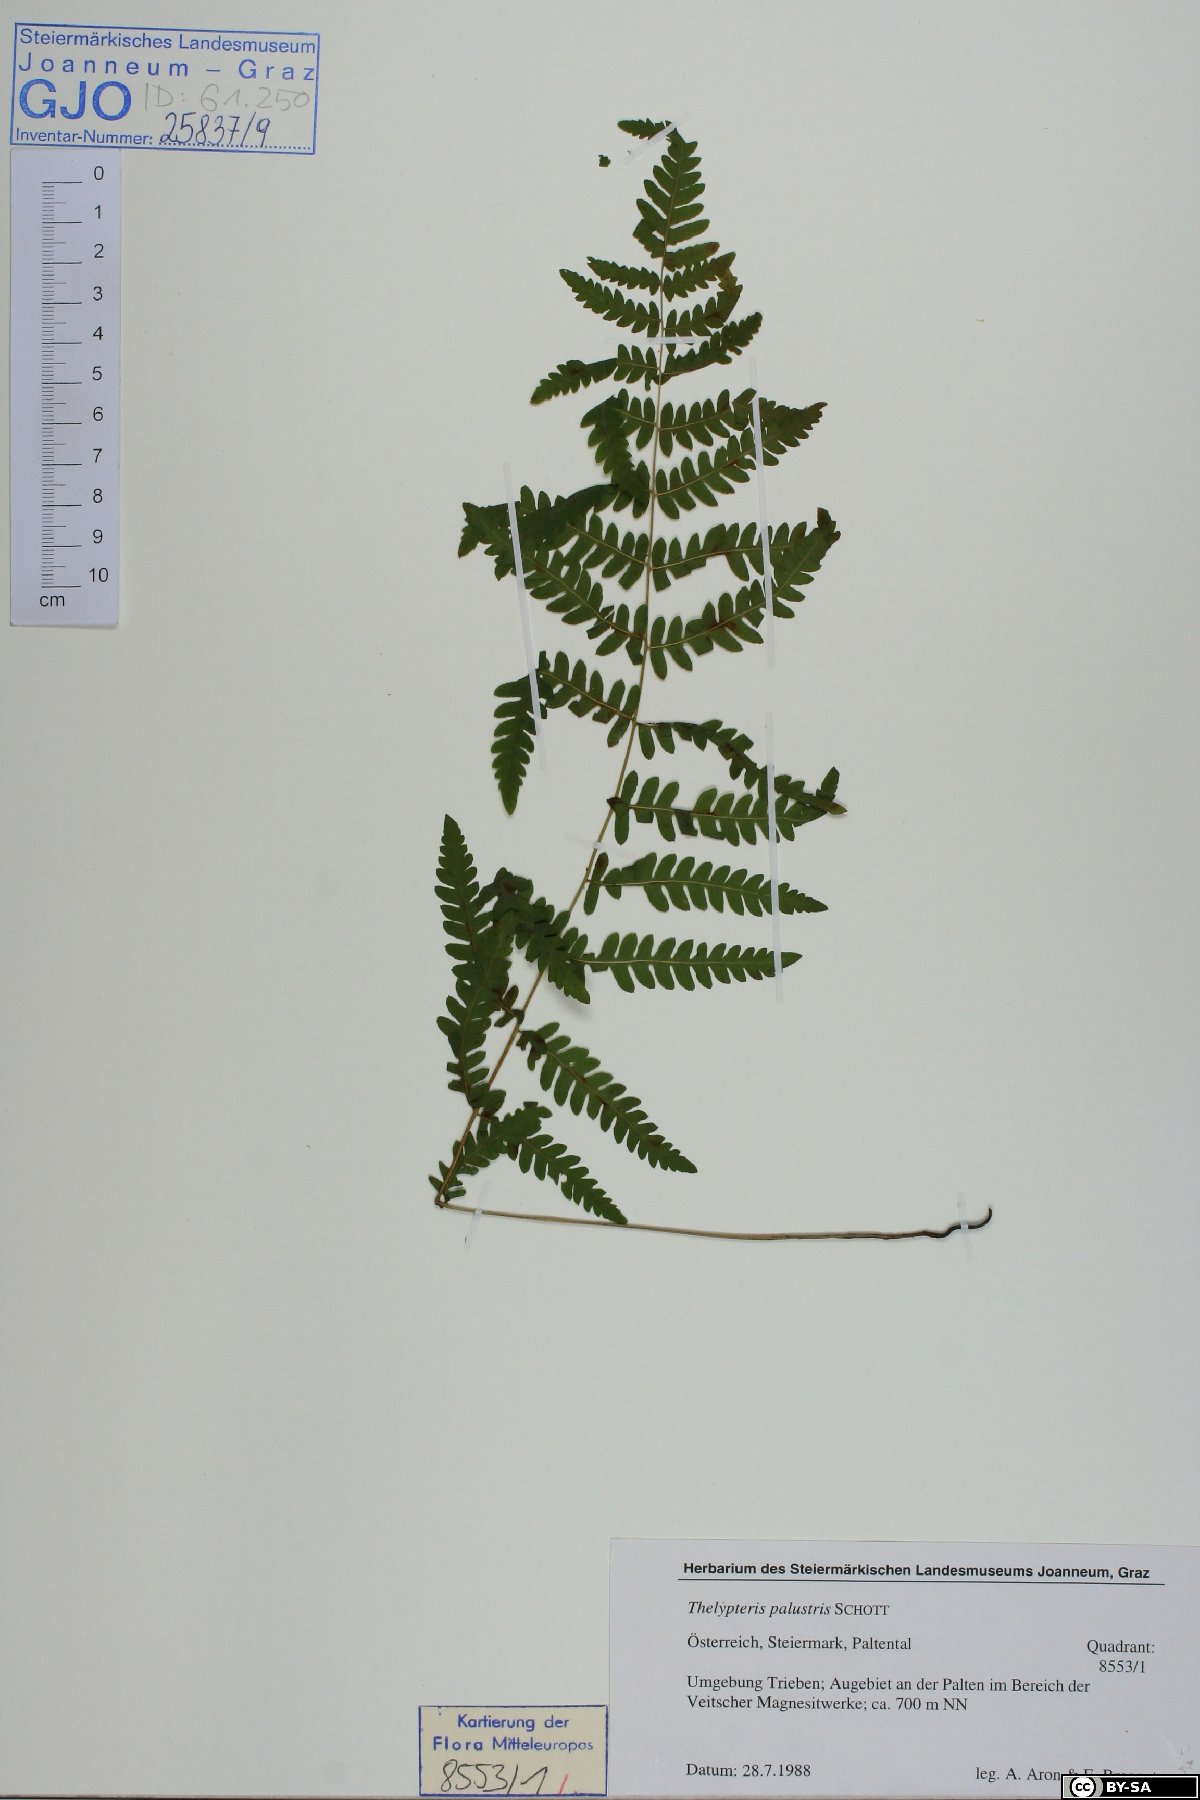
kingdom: Plantae
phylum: Tracheophyta
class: Polypodiopsida
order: Polypodiales
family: Thelypteridaceae
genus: Thelypteris
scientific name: Thelypteris palustris
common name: Marsh fern
